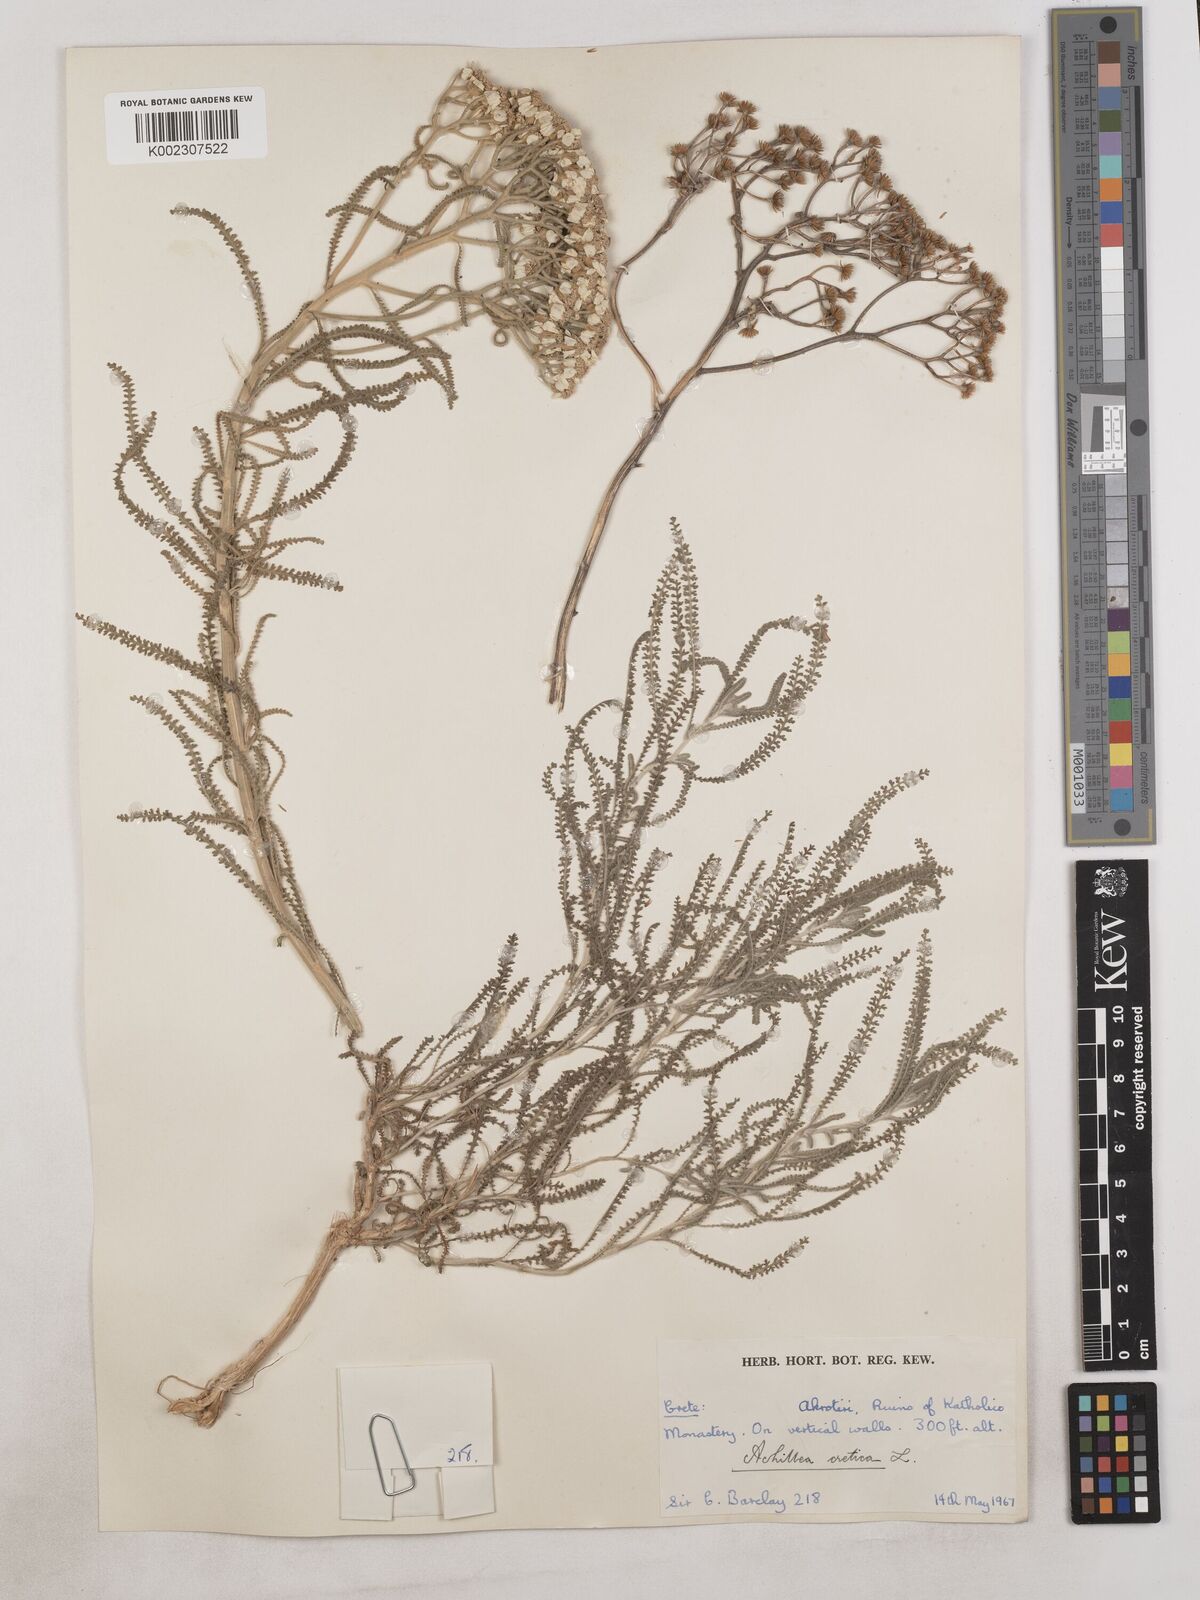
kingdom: Plantae
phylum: Tracheophyta
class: Magnoliopsida
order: Asterales
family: Asteraceae
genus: Achillea
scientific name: Achillea cretica
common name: Chamomile-leaved lavender-cotton
